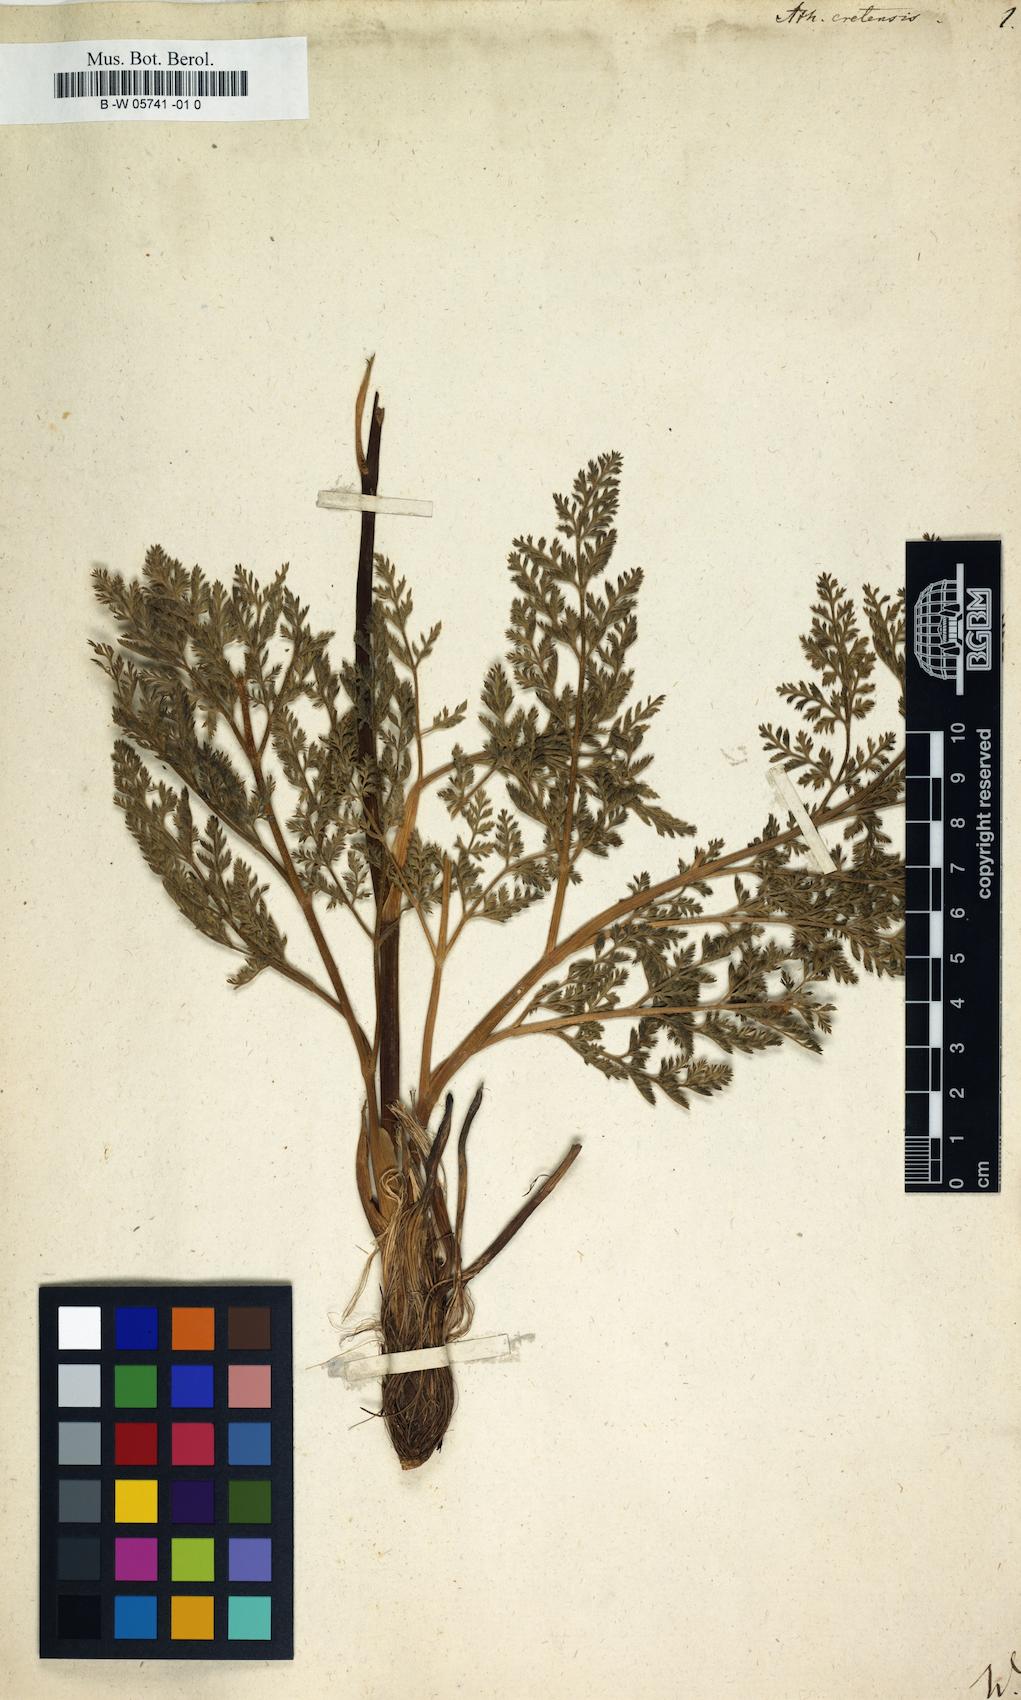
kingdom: Plantae
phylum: Tracheophyta
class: Magnoliopsida
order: Apiales
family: Apiaceae
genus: Athamanta
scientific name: Athamanta cretensis
